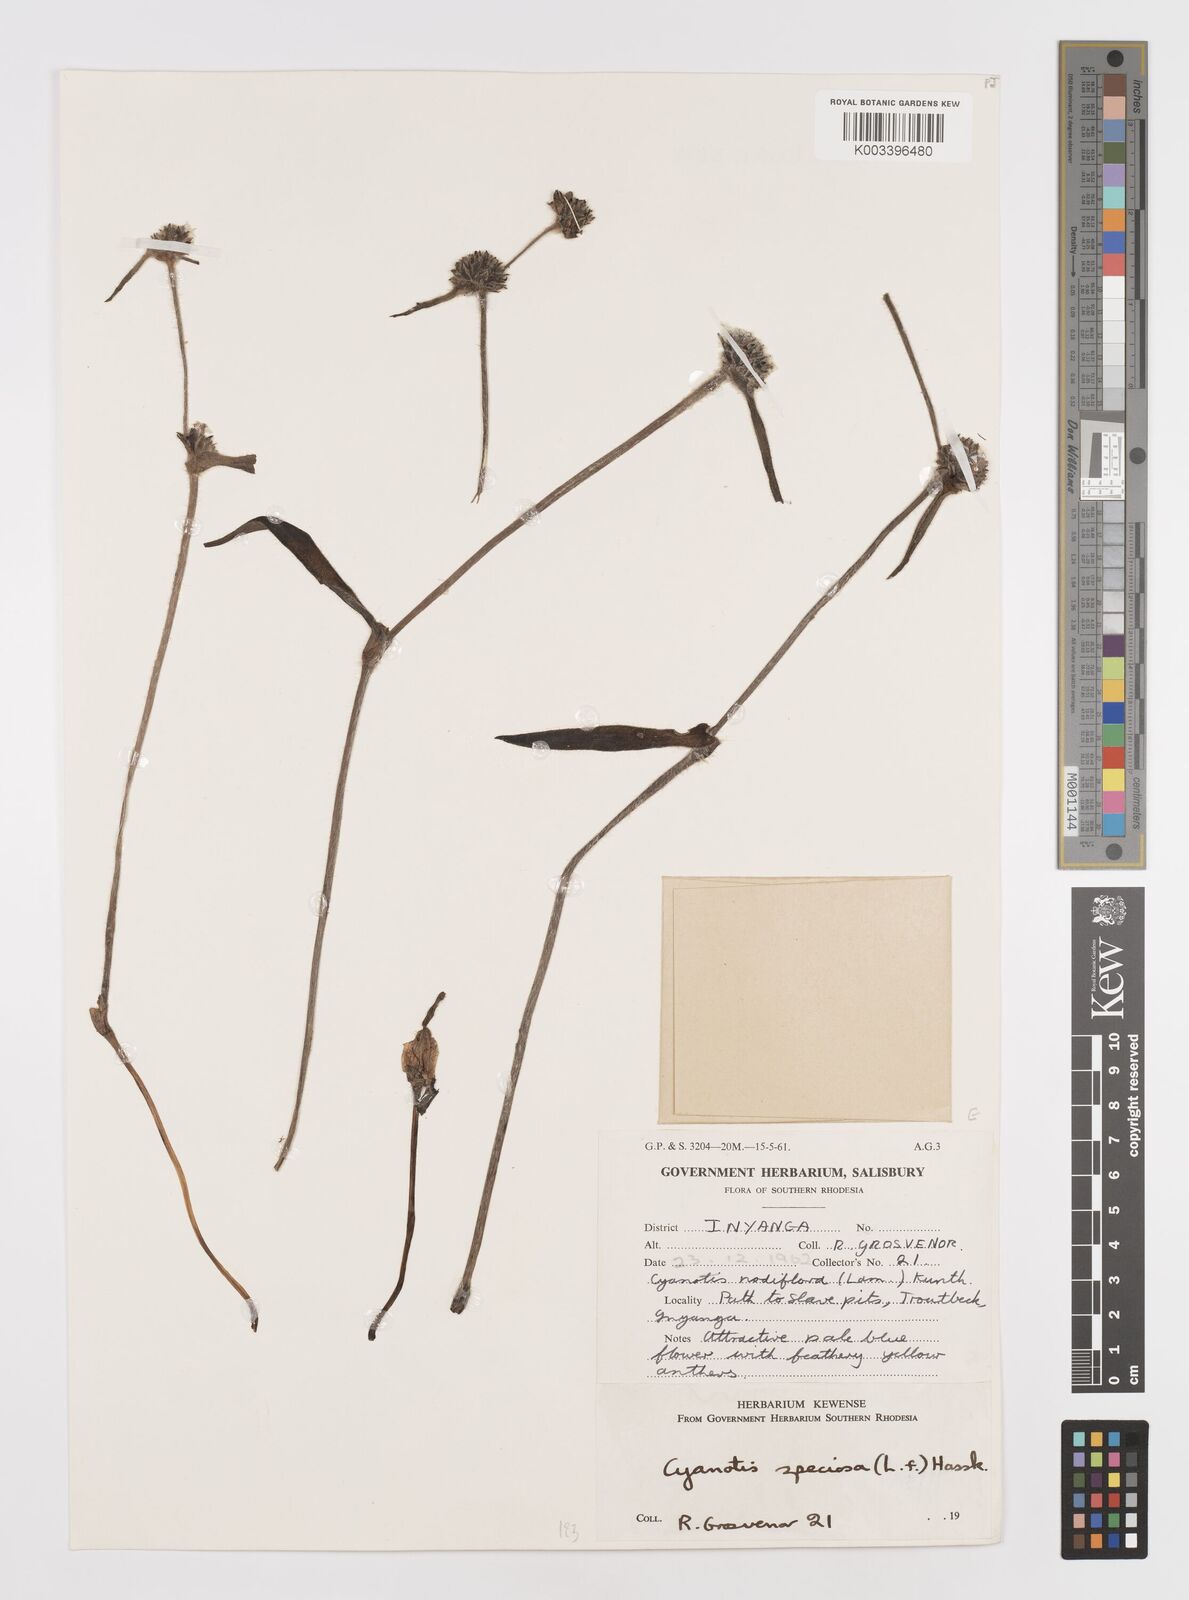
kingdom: Plantae
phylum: Tracheophyta
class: Liliopsida
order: Commelinales
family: Commelinaceae
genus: Cyanotis
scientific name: Cyanotis speciosa
